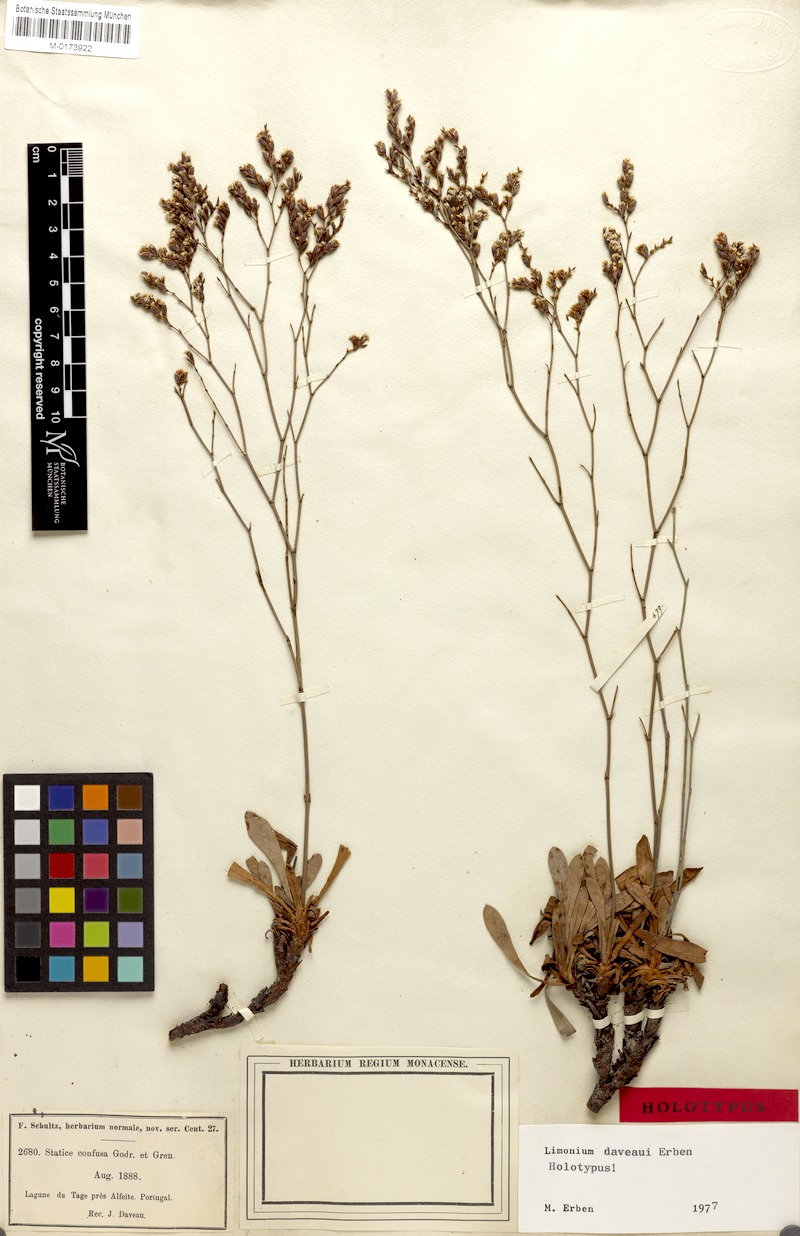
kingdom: Plantae
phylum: Tracheophyta
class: Magnoliopsida
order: Caryophyllales
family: Plumbaginaceae
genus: Limonium
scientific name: Limonium daveaui
